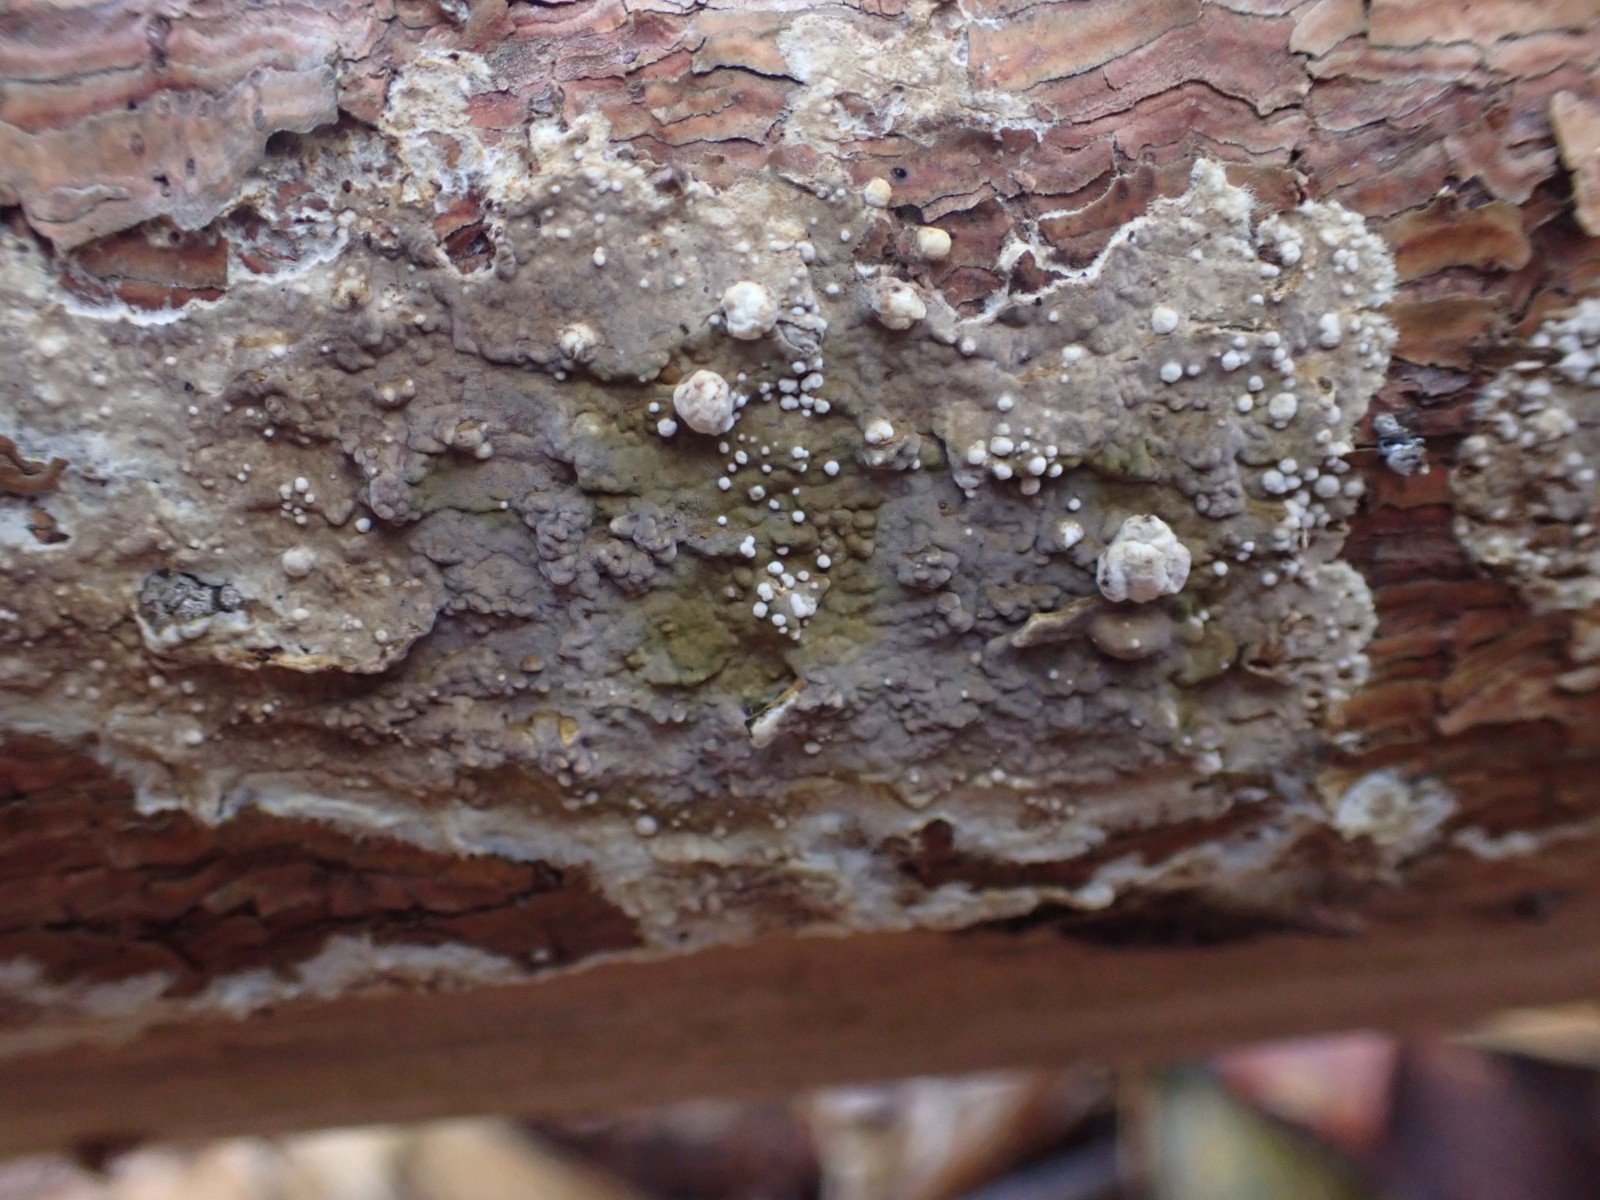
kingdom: Fungi
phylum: Ascomycota
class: Sordariomycetes
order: Xylariales
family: Hypoxylaceae
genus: Nodulisporium
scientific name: Nodulisporium cecidiogenes
